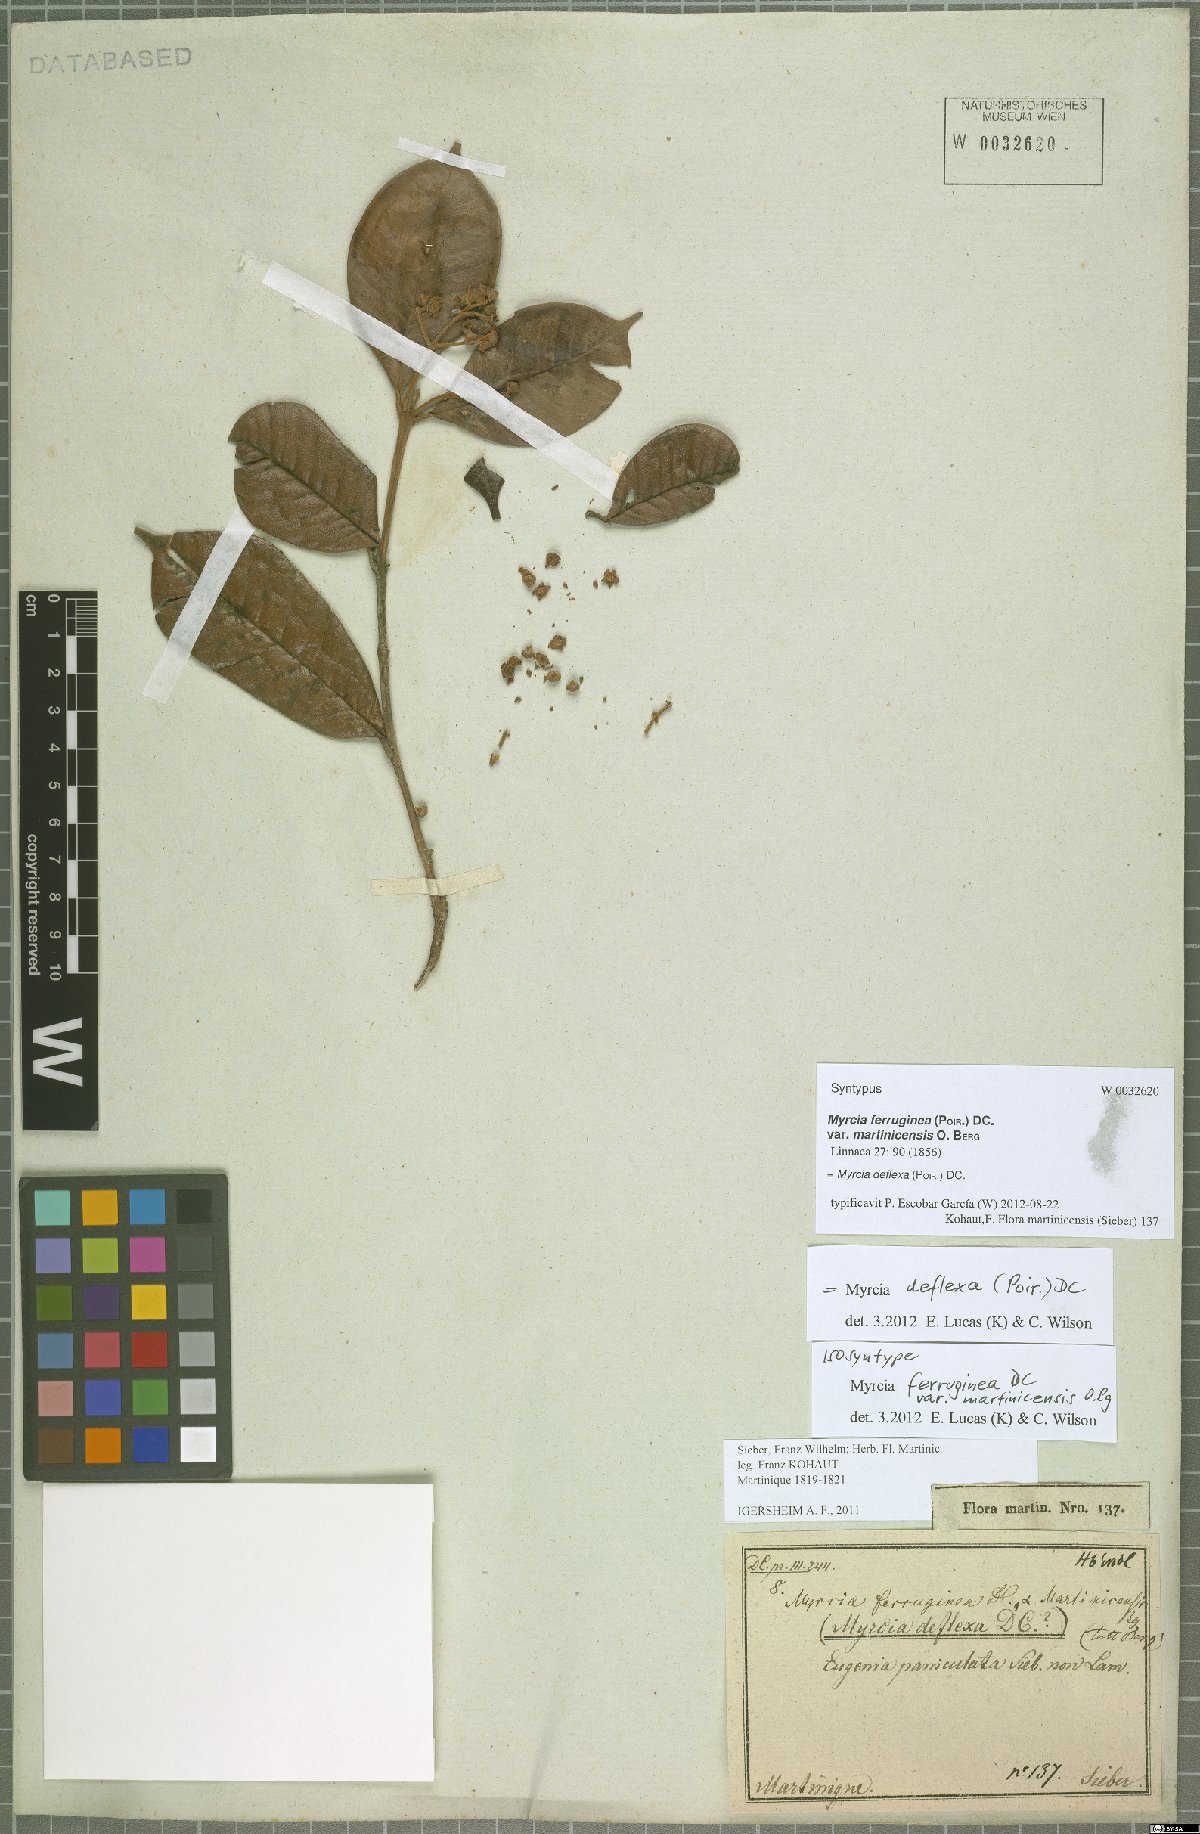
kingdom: Plantae
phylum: Tracheophyta
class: Magnoliopsida
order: Myrtales
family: Myrtaceae
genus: Myrcia
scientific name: Myrcia deflexa
